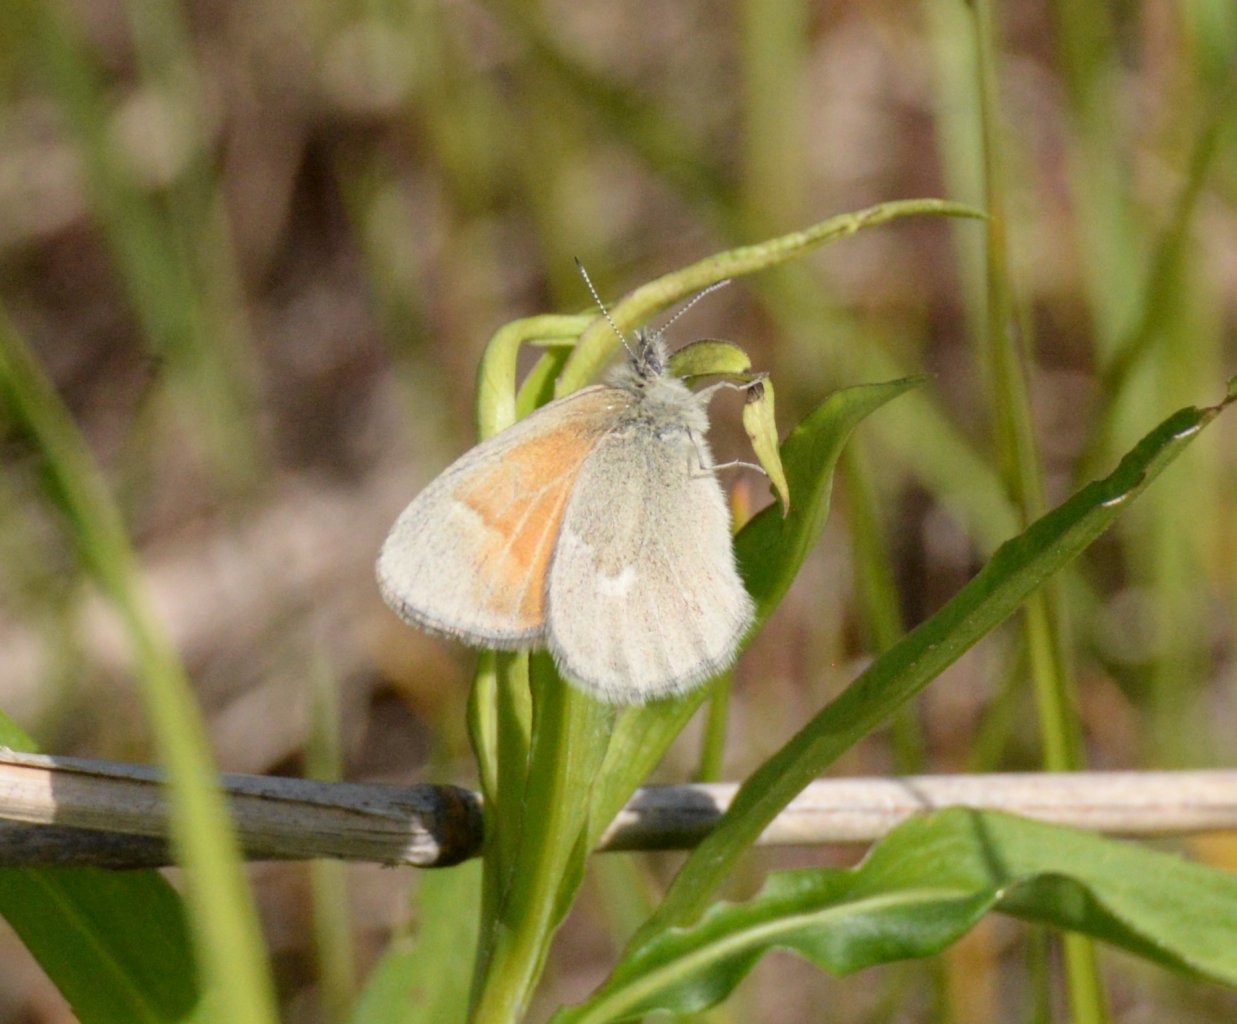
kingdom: Animalia
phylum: Arthropoda
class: Insecta
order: Lepidoptera
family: Nymphalidae
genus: Coenonympha
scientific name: Coenonympha tullia
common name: Large Heath
